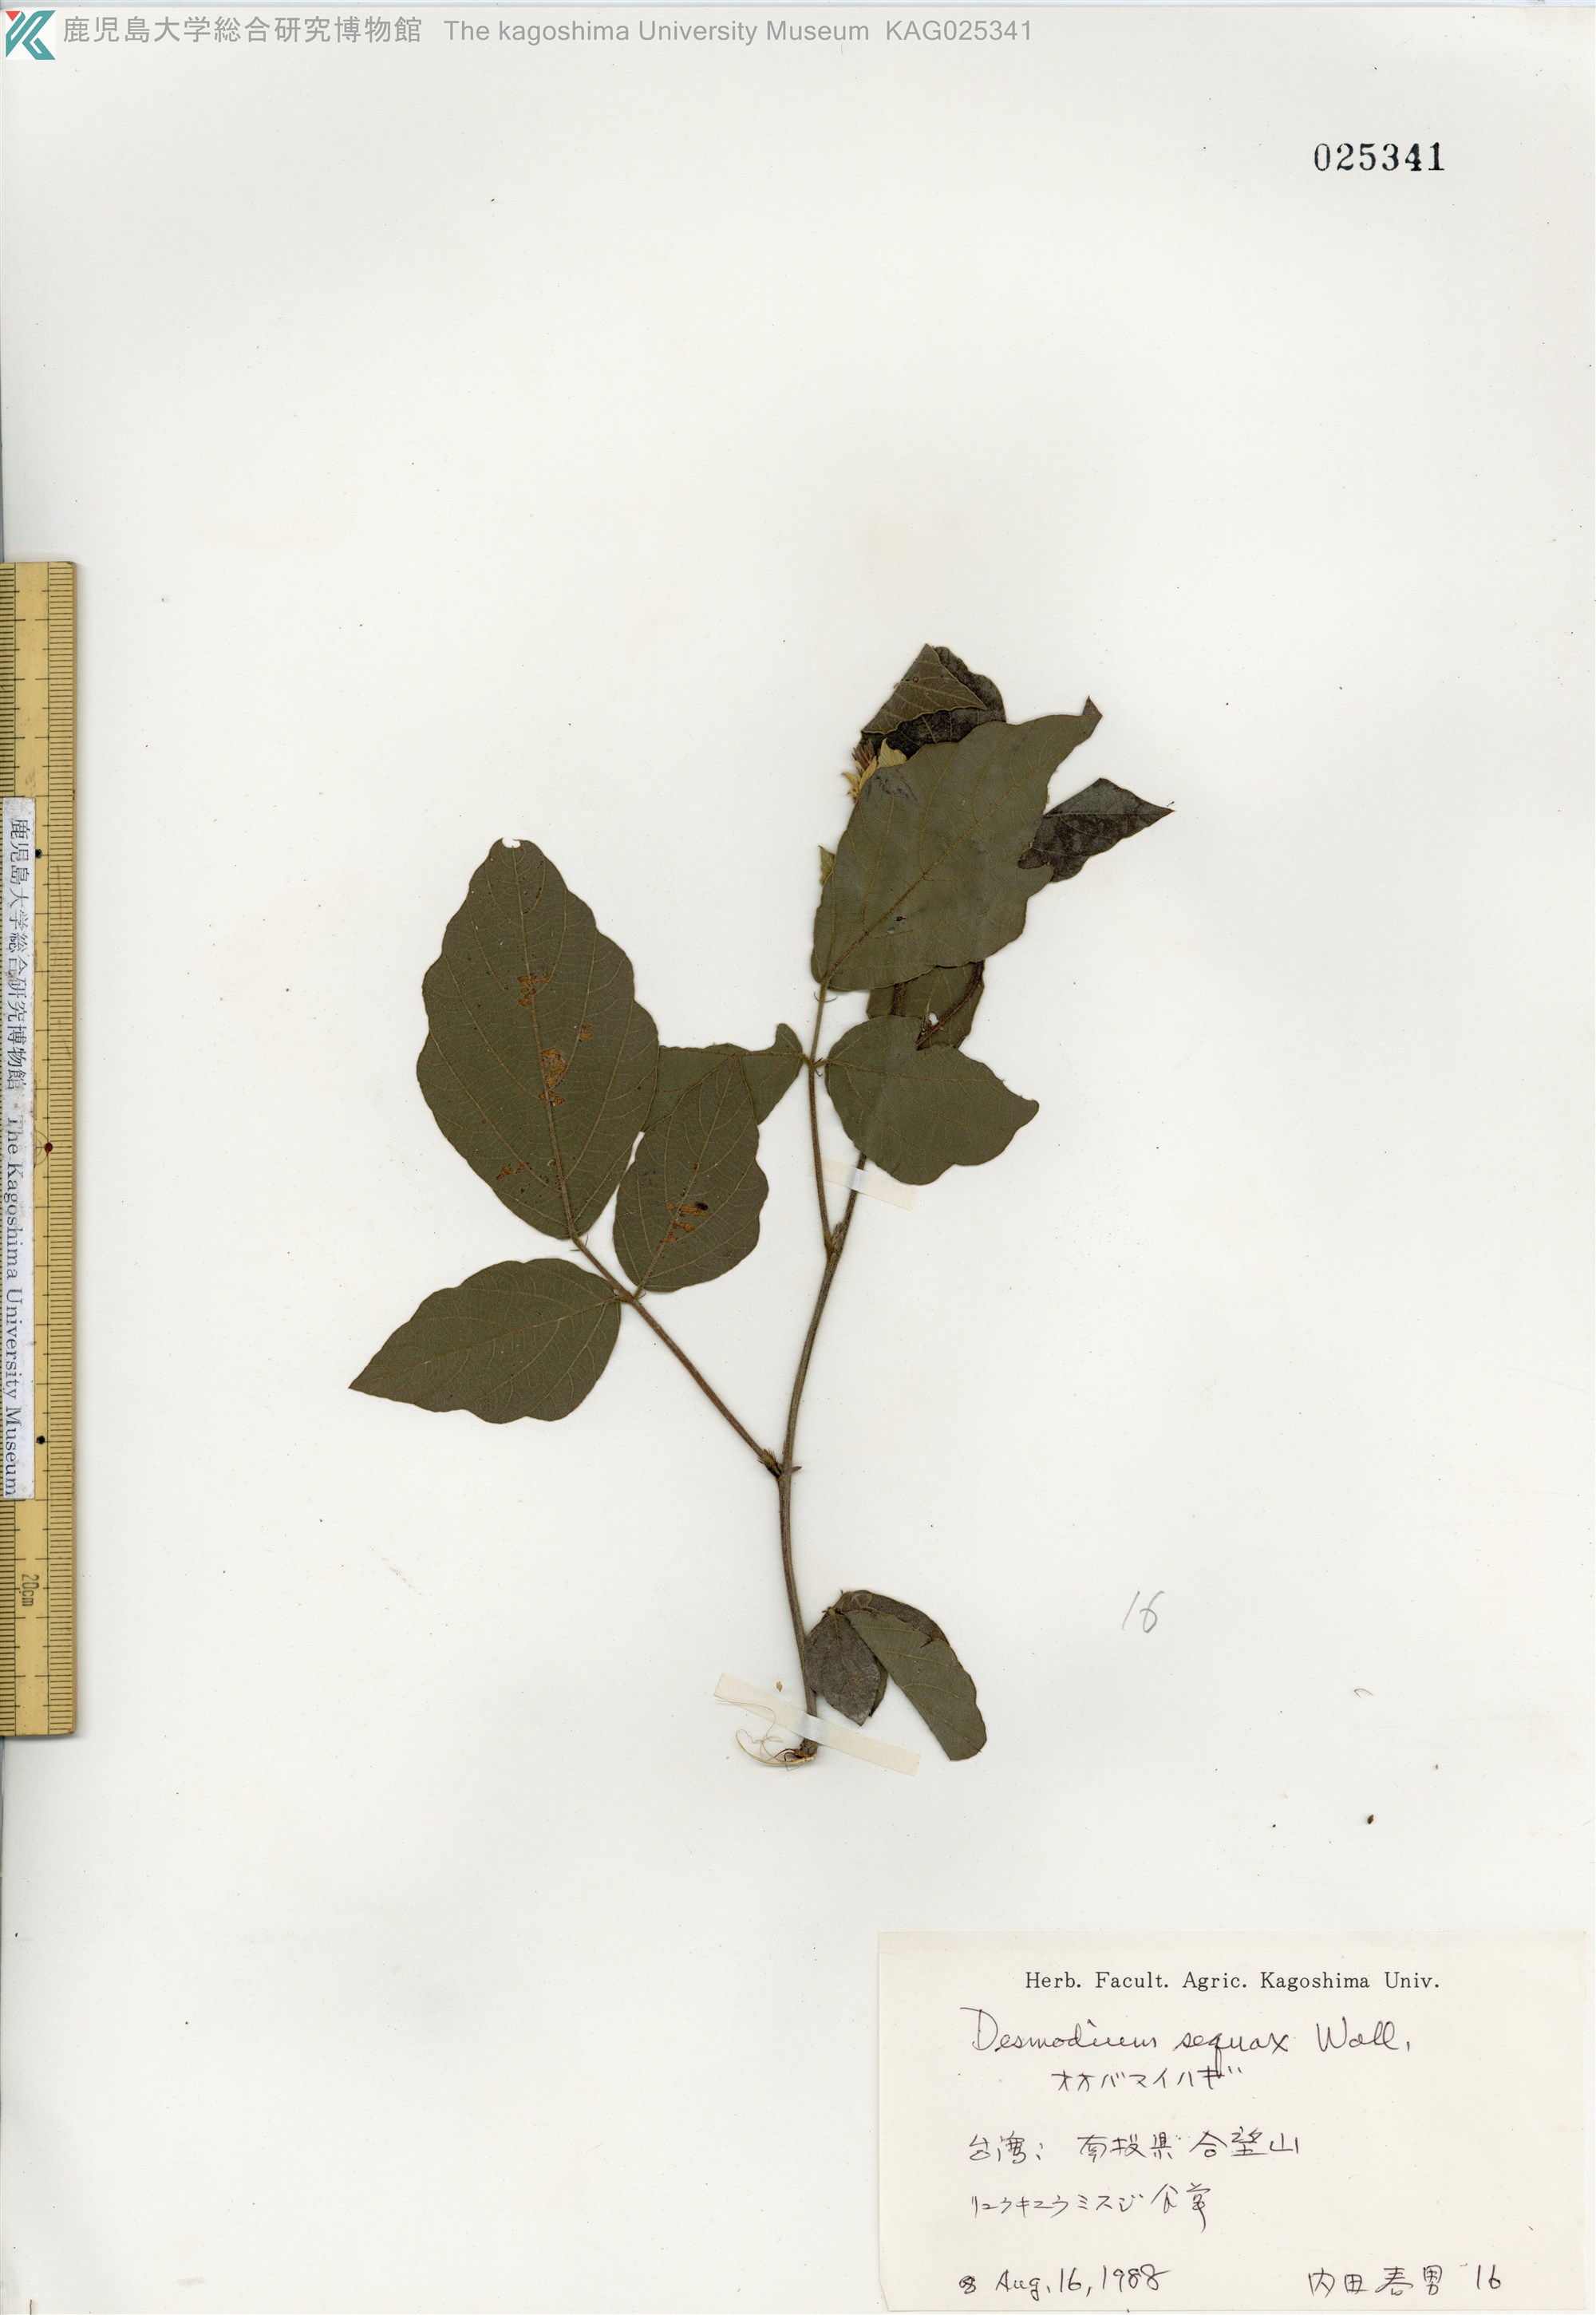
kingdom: Plantae
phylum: Tracheophyta
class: Magnoliopsida
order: Fabales
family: Fabaceae
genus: Puhuaea
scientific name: Puhuaea sequax
